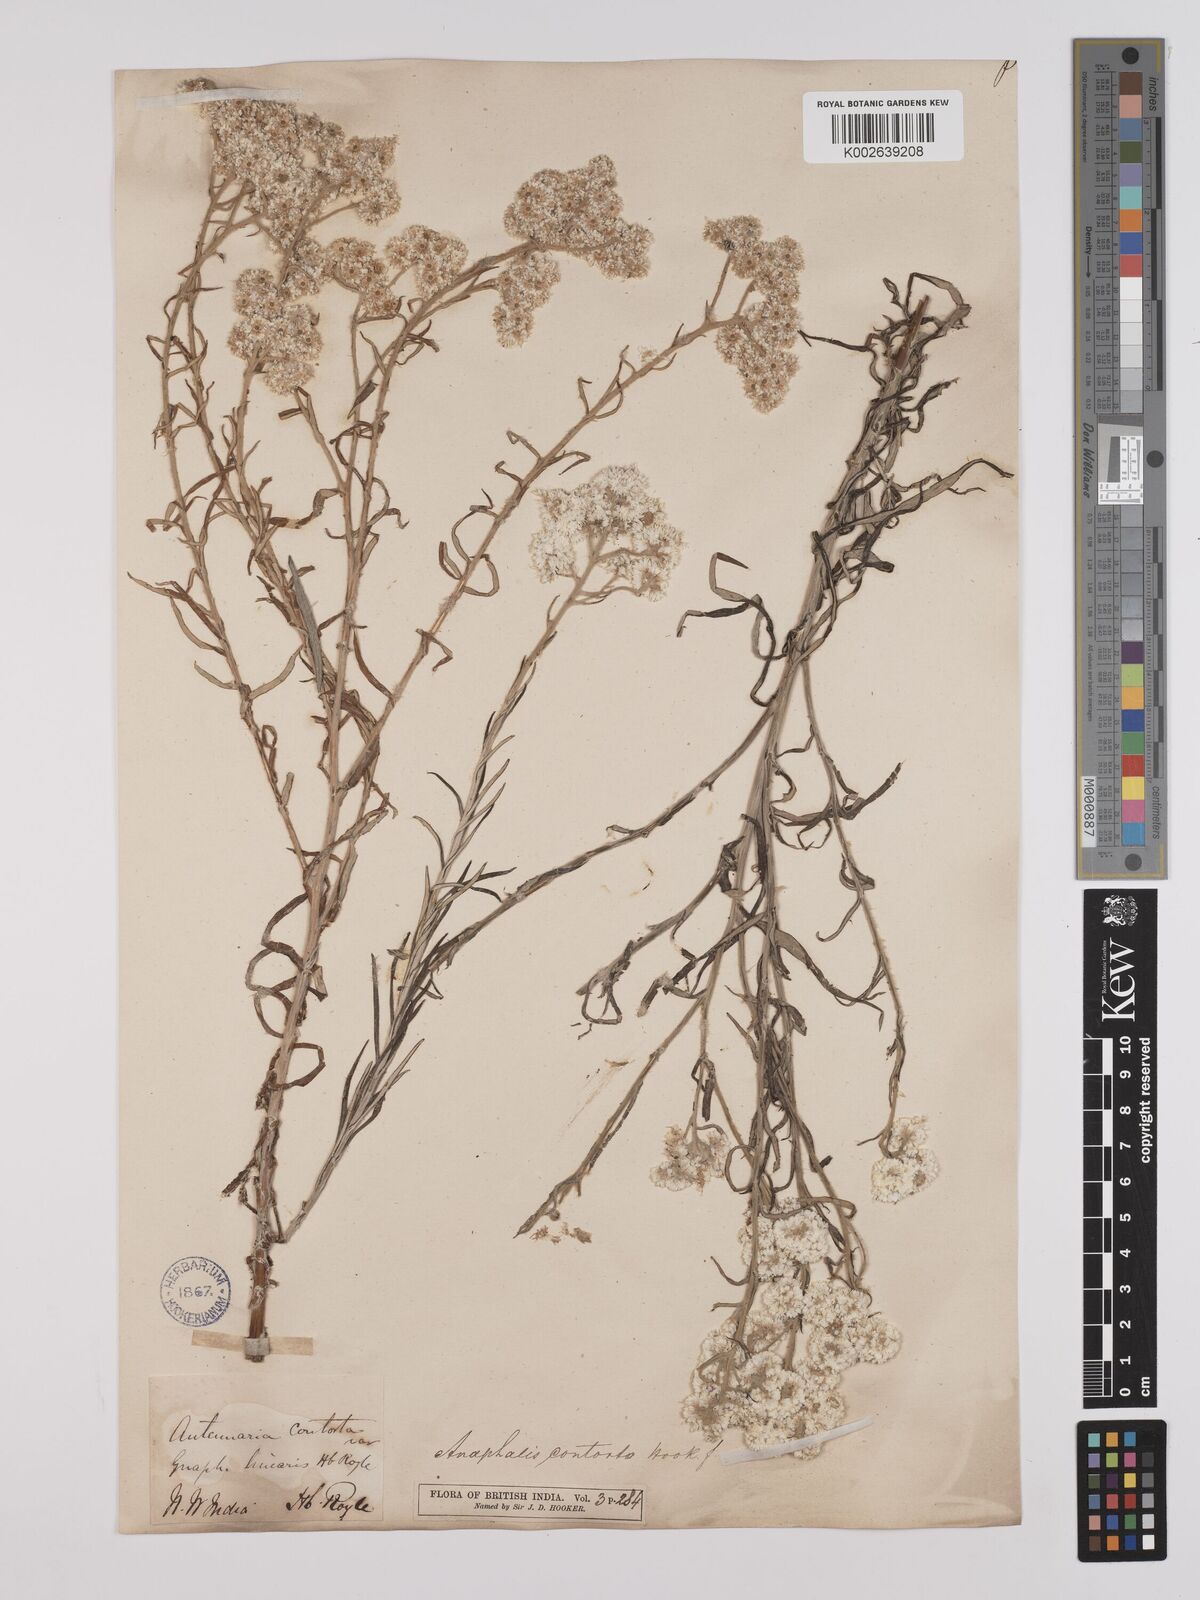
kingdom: Plantae
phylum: Tracheophyta
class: Magnoliopsida
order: Asterales
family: Asteraceae
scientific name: Asteraceae
